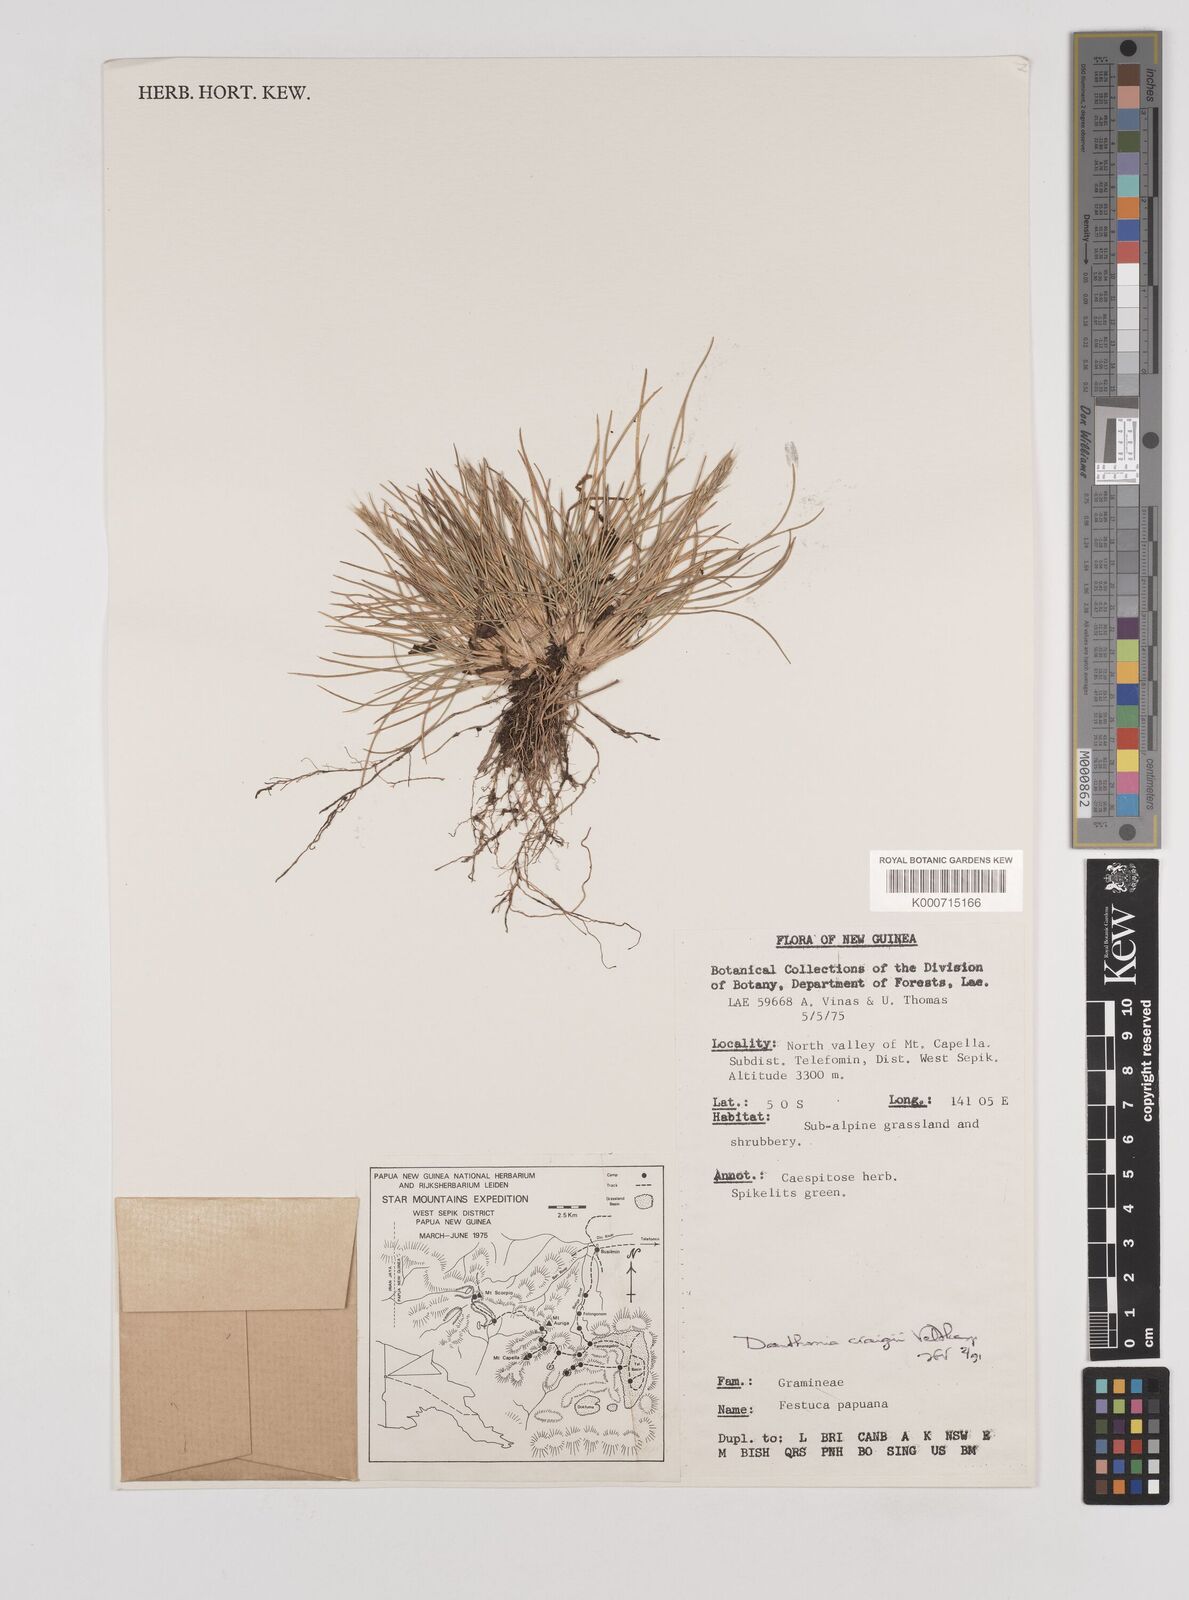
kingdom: Plantae
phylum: Tracheophyta
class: Liliopsida
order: Poales
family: Poaceae
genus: Rytidosperma
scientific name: Rytidosperma craigii
